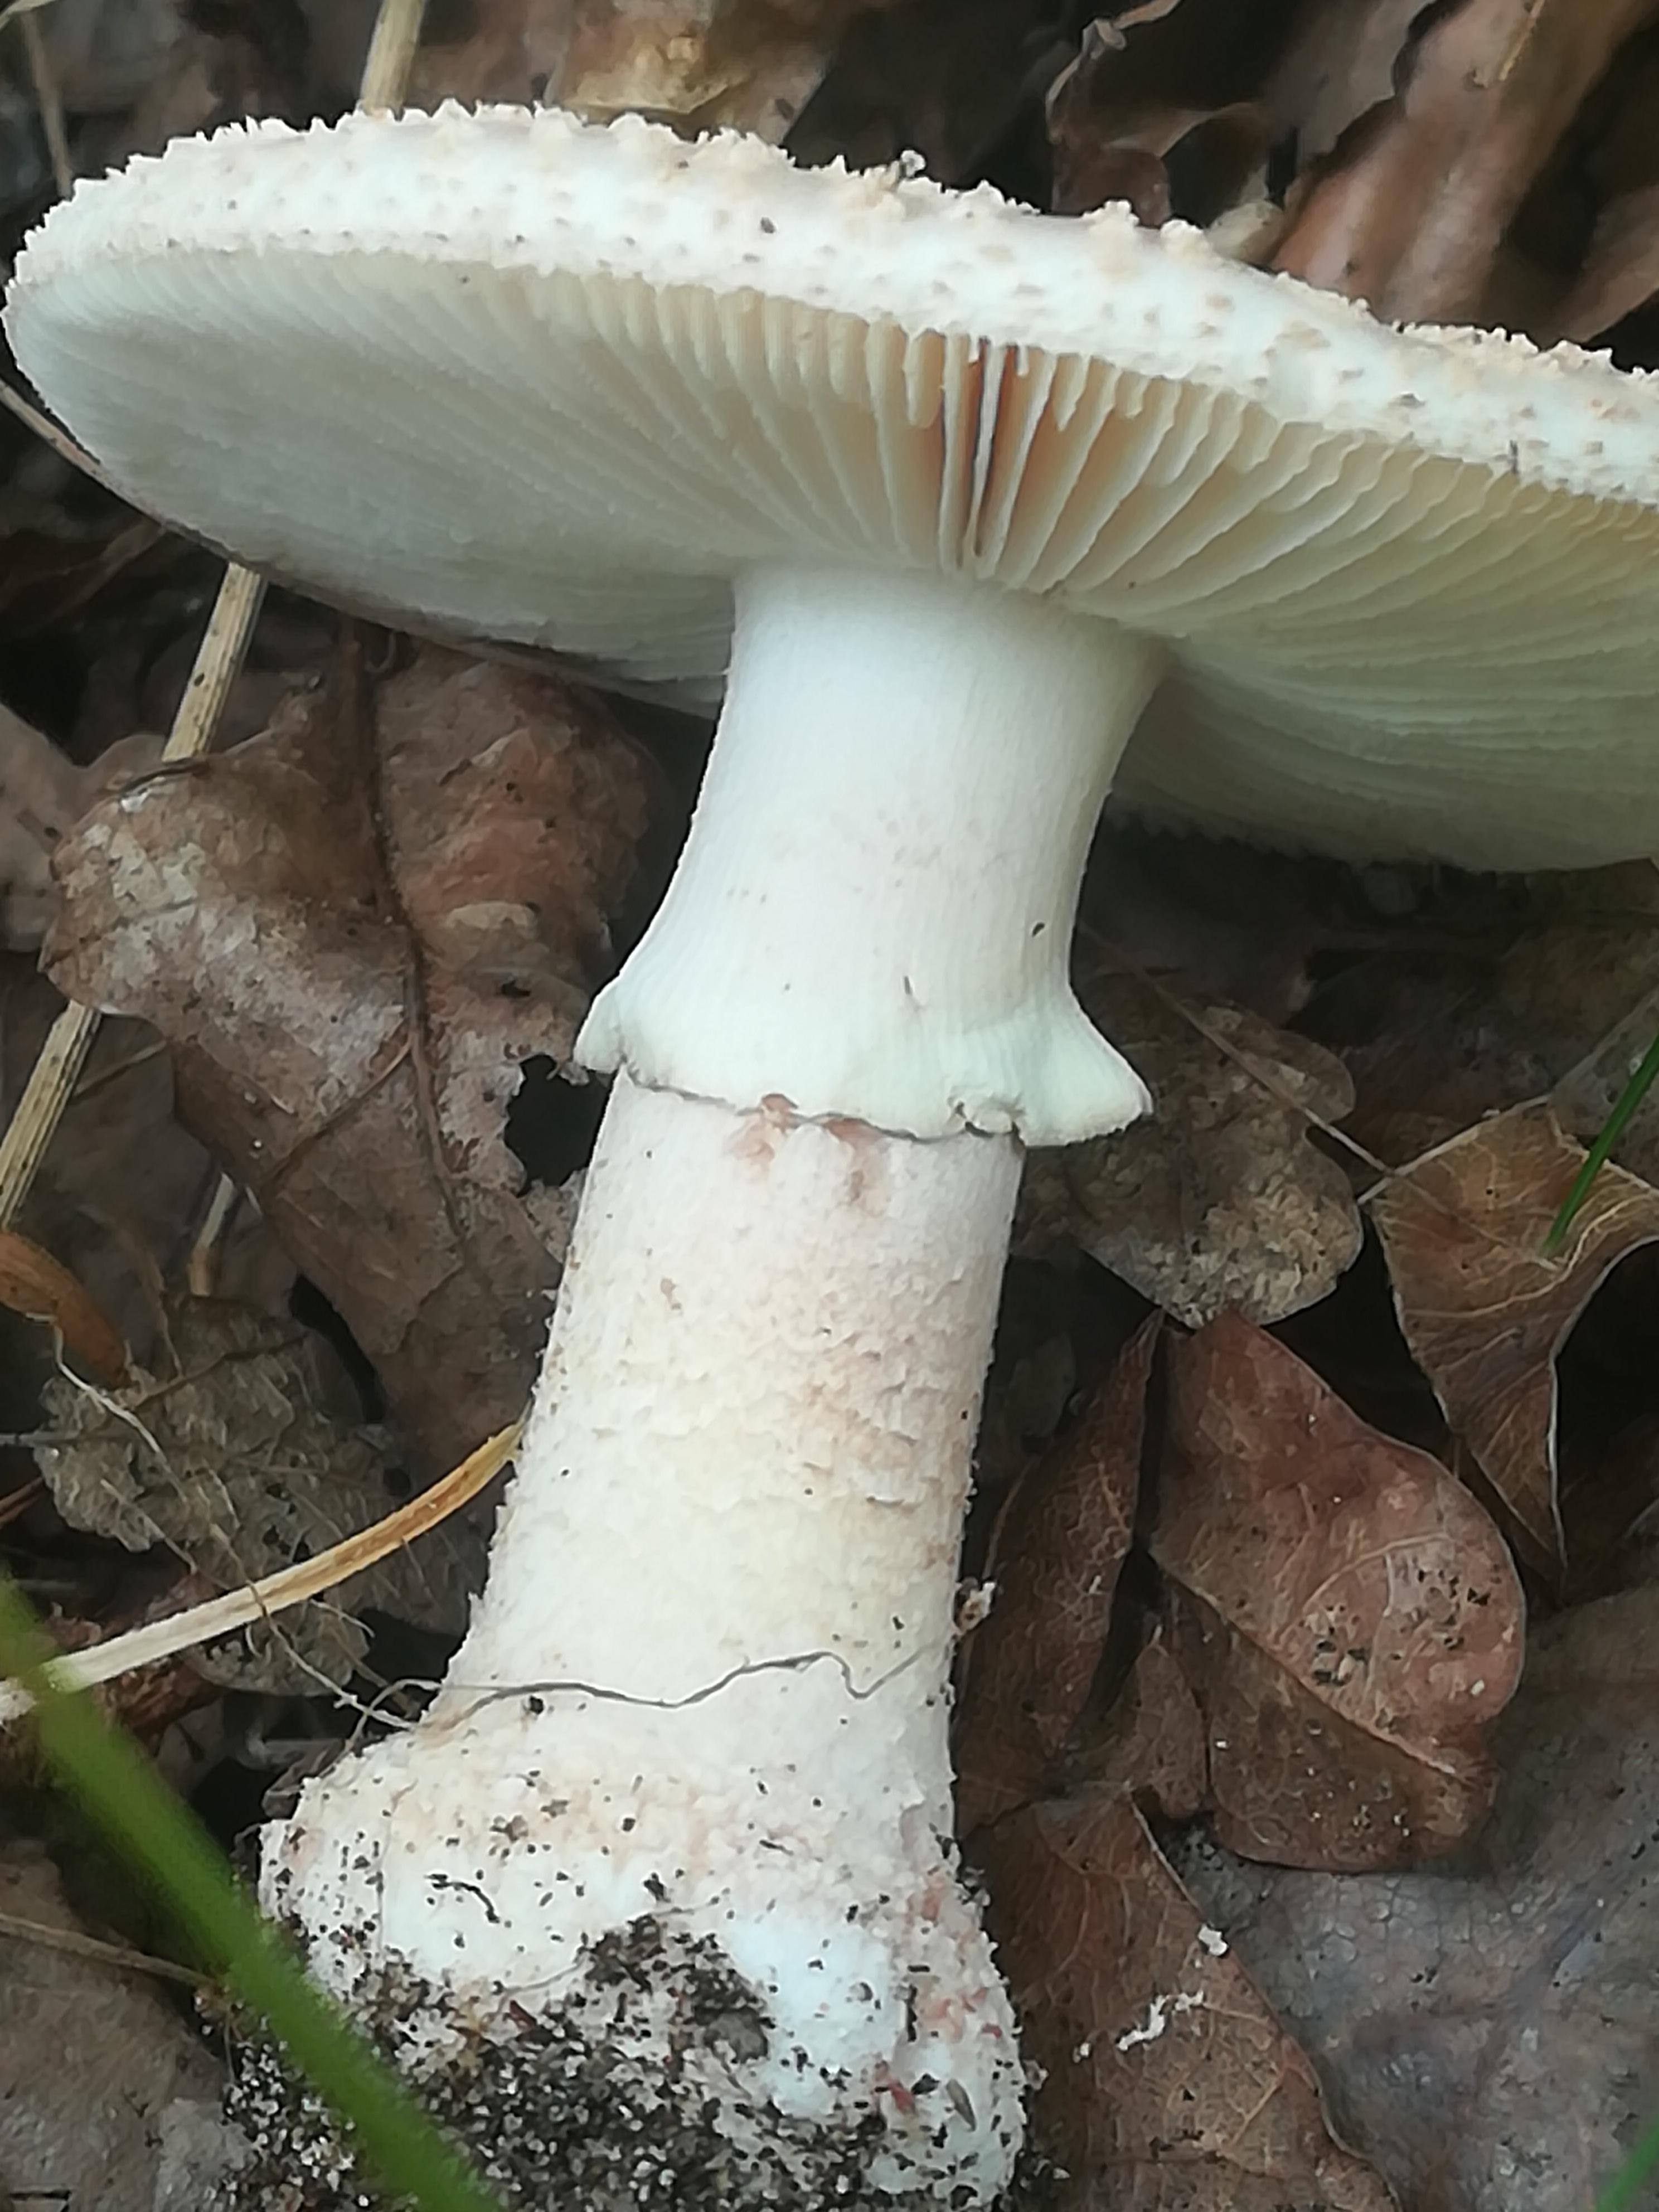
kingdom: Fungi
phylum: Basidiomycota
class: Agaricomycetes
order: Agaricales
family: Amanitaceae
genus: Amanita
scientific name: Amanita rubescens
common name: rødmende fluesvamp
